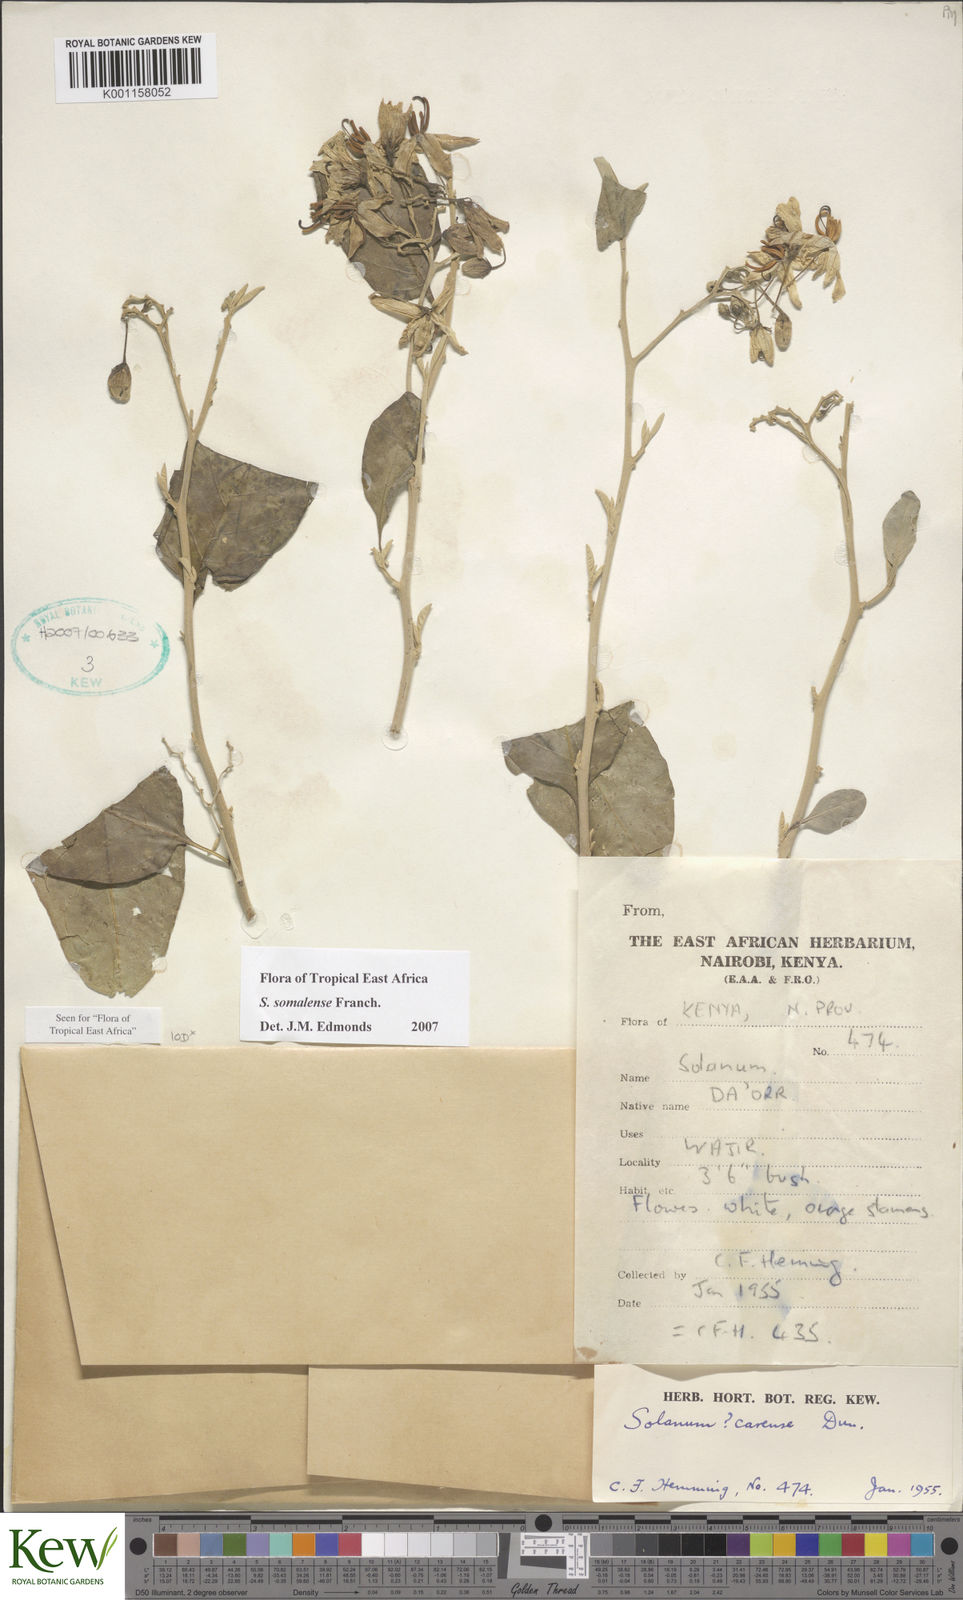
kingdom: Plantae
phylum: Tracheophyta
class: Magnoliopsida
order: Solanales
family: Solanaceae
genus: Solanum
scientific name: Solanum somalense
